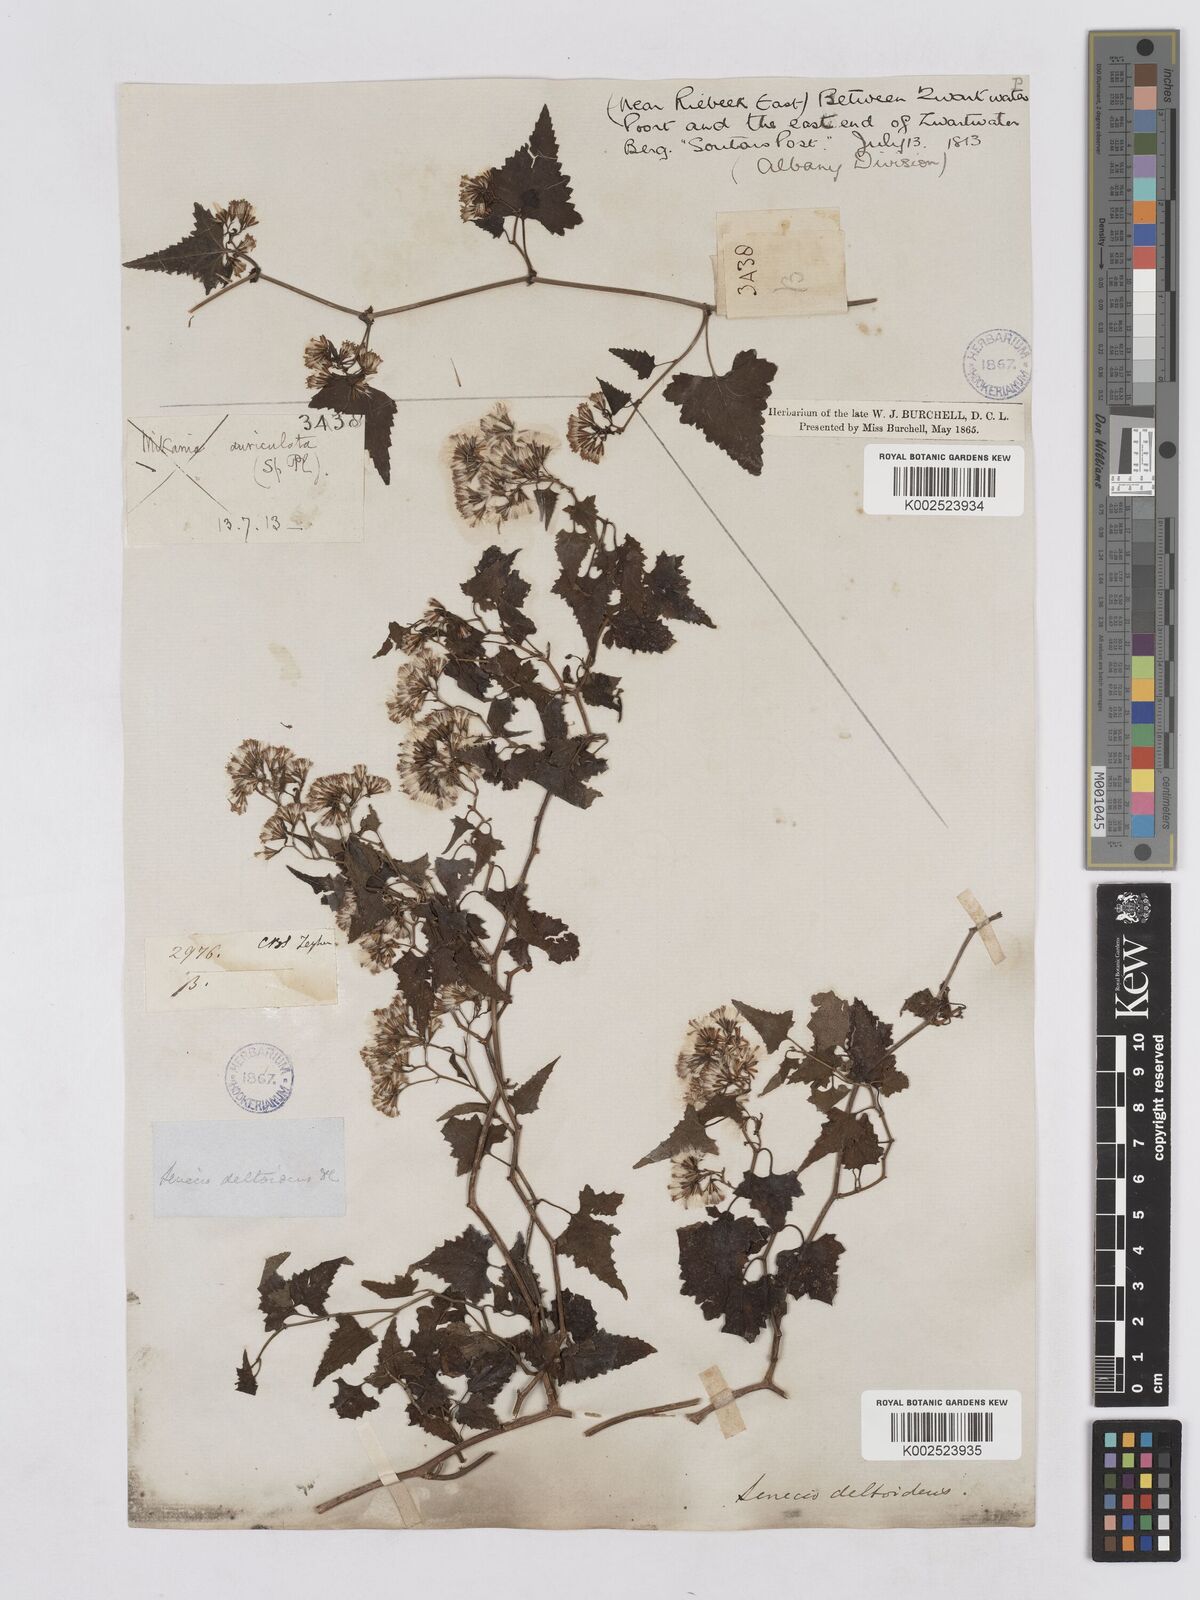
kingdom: Plantae
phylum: Tracheophyta
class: Magnoliopsida
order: Asterales
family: Asteraceae
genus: Senecio
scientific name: Senecio deltoideus
